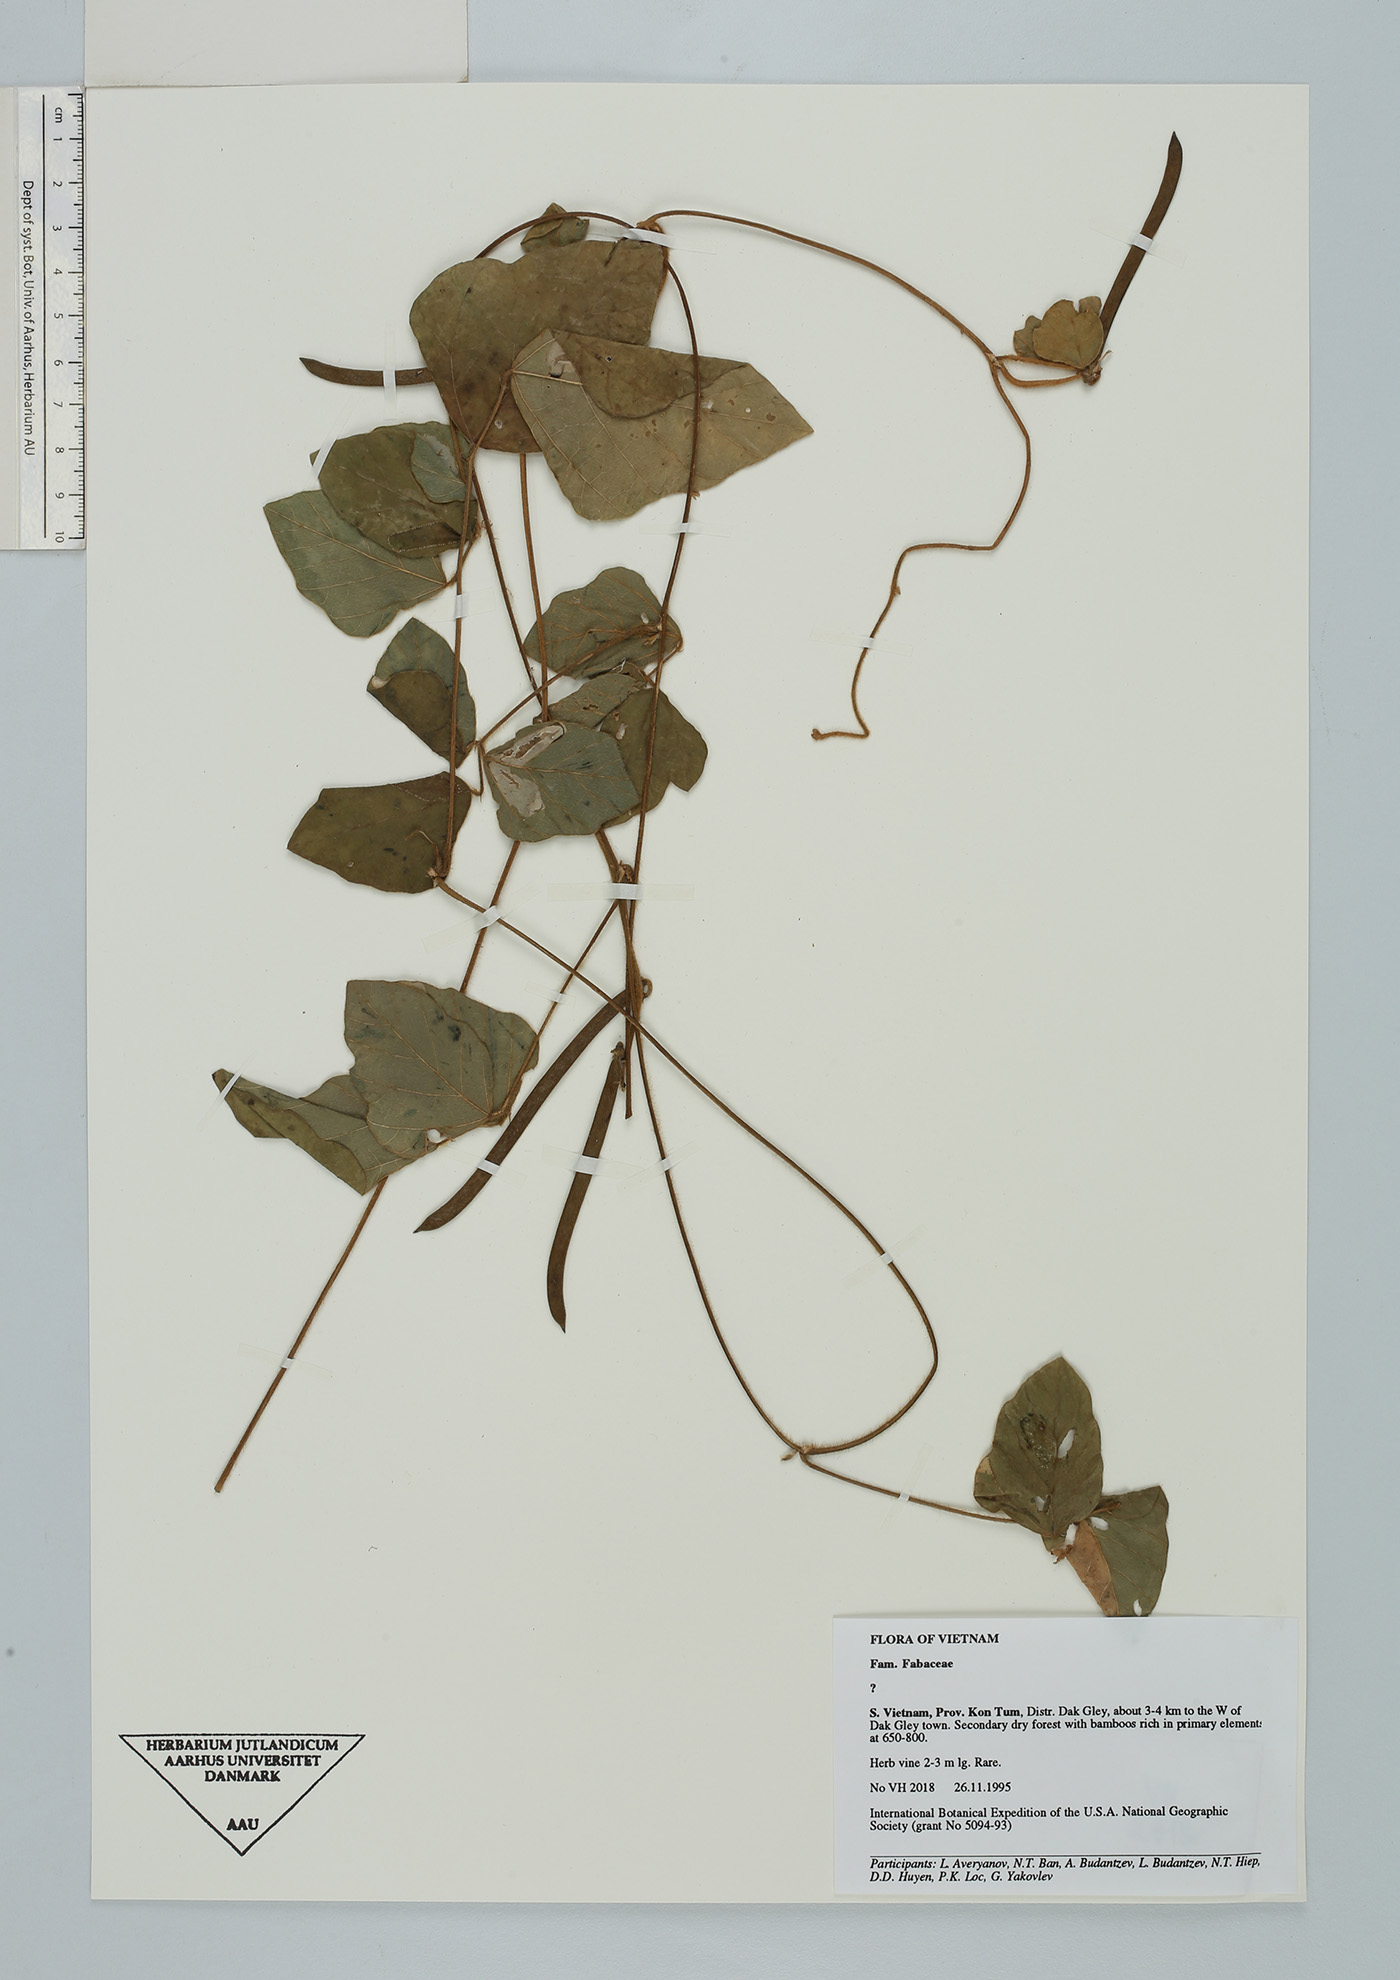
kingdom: Plantae
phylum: Tracheophyta
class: Magnoliopsida
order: Fabales
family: Fabaceae
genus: Neustanthus
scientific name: Neustanthus phaseoloides
